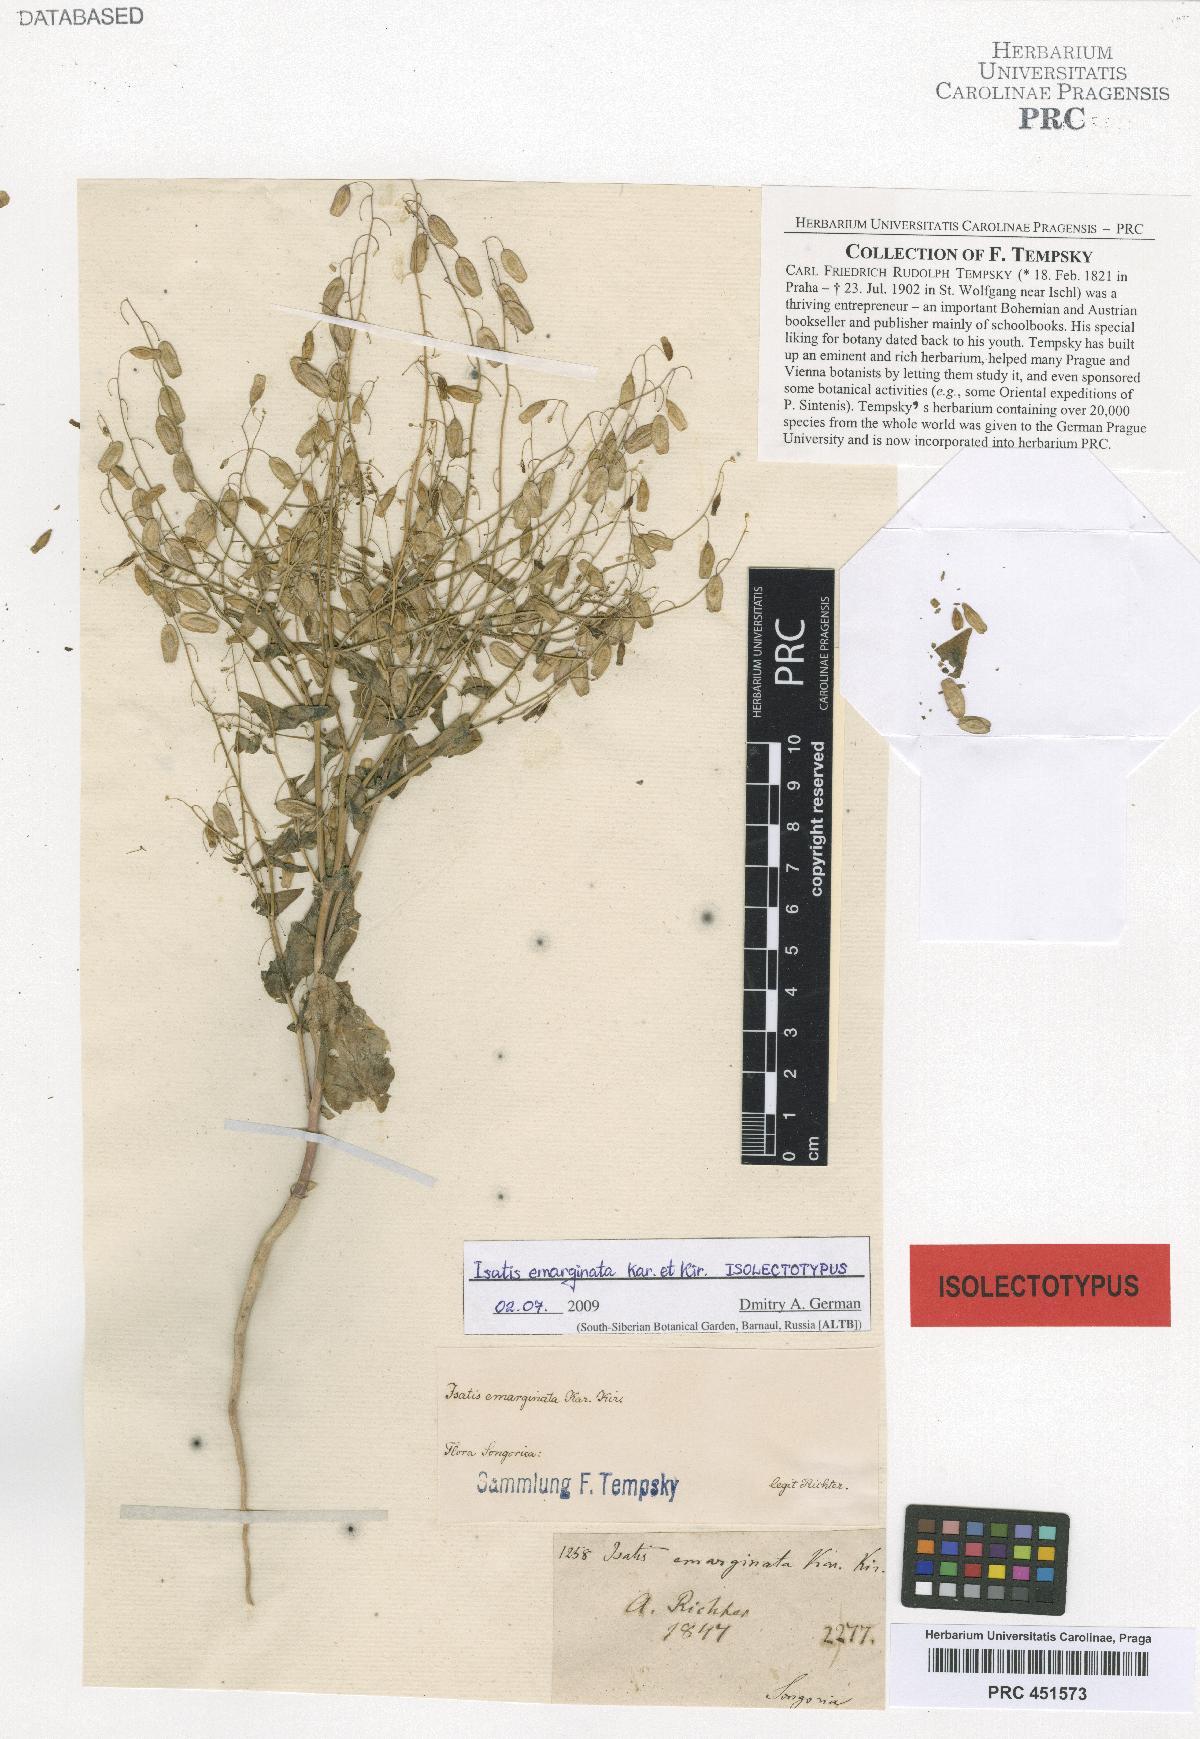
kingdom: Plantae
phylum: Tracheophyta
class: Magnoliopsida
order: Brassicales
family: Brassicaceae
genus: Isatis
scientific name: Isatis emarginata
